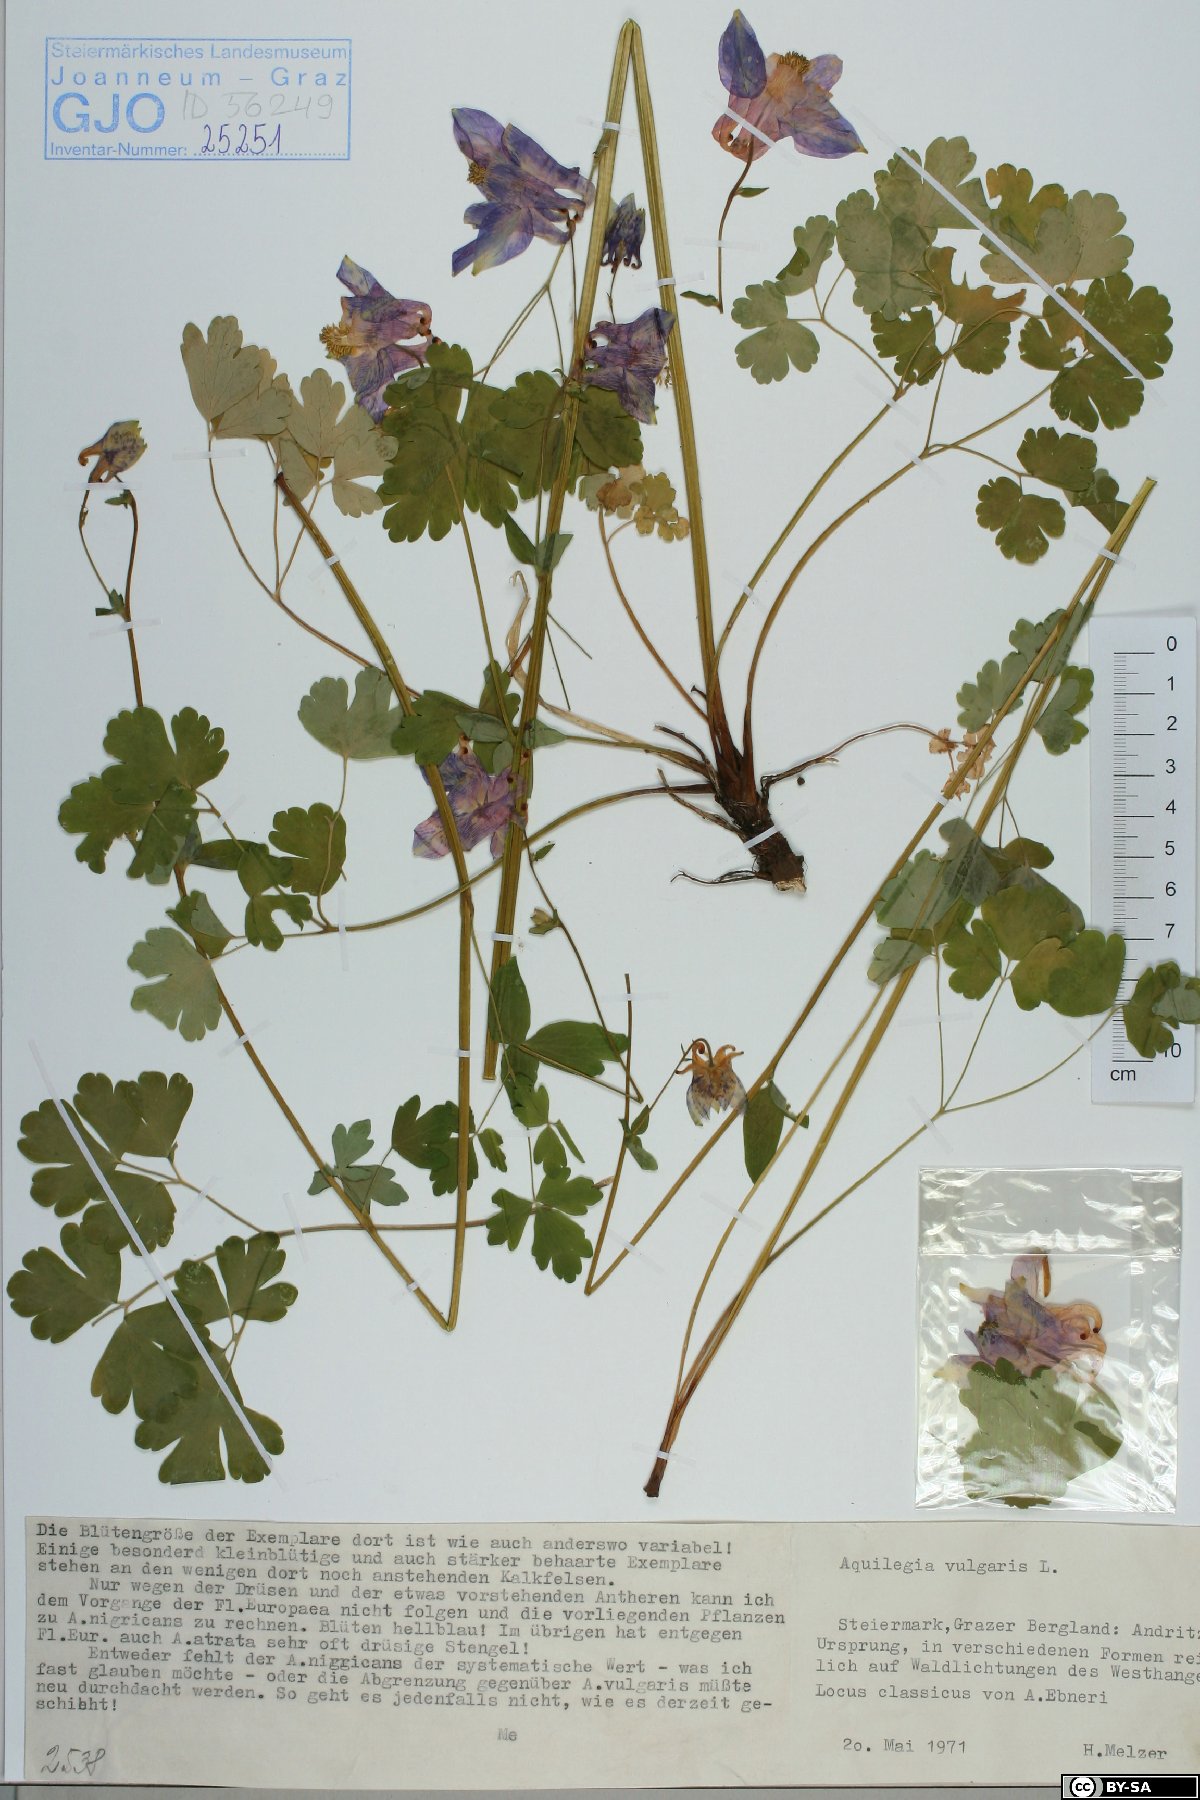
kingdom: Plantae
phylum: Tracheophyta
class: Magnoliopsida
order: Ranunculales
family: Ranunculaceae
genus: Aquilegia
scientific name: Aquilegia vulgaris
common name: Columbine
